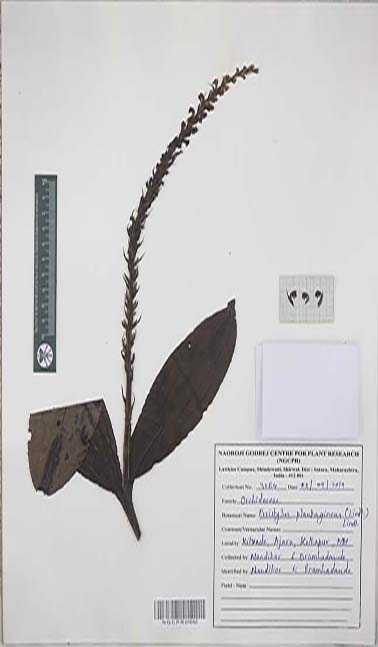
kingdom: Plantae
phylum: Tracheophyta
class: Liliopsida
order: Asparagales
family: Orchidaceae
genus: Peristylus
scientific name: Peristylus plantagineus
